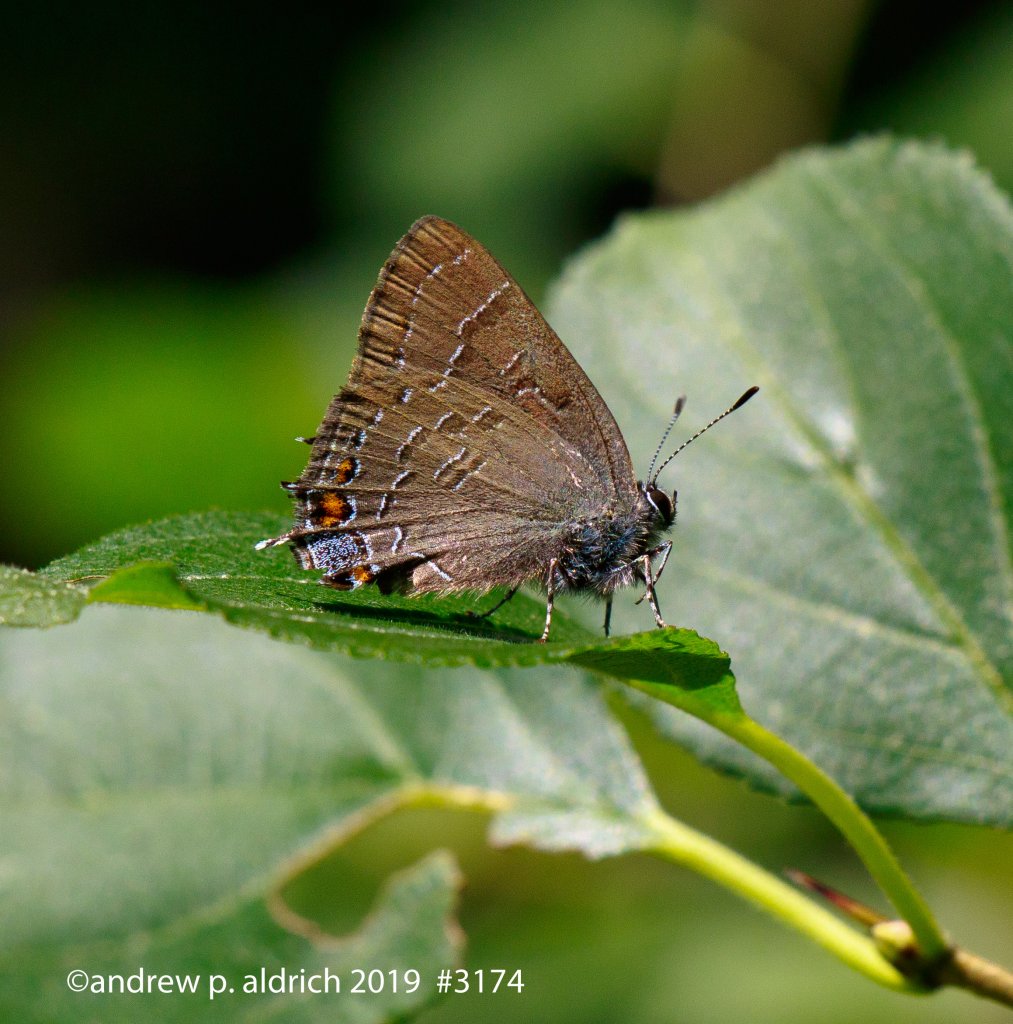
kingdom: Animalia
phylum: Arthropoda
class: Insecta
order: Lepidoptera
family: Lycaenidae
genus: Satyrium
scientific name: Satyrium calanus
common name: Banded Hairstreak
